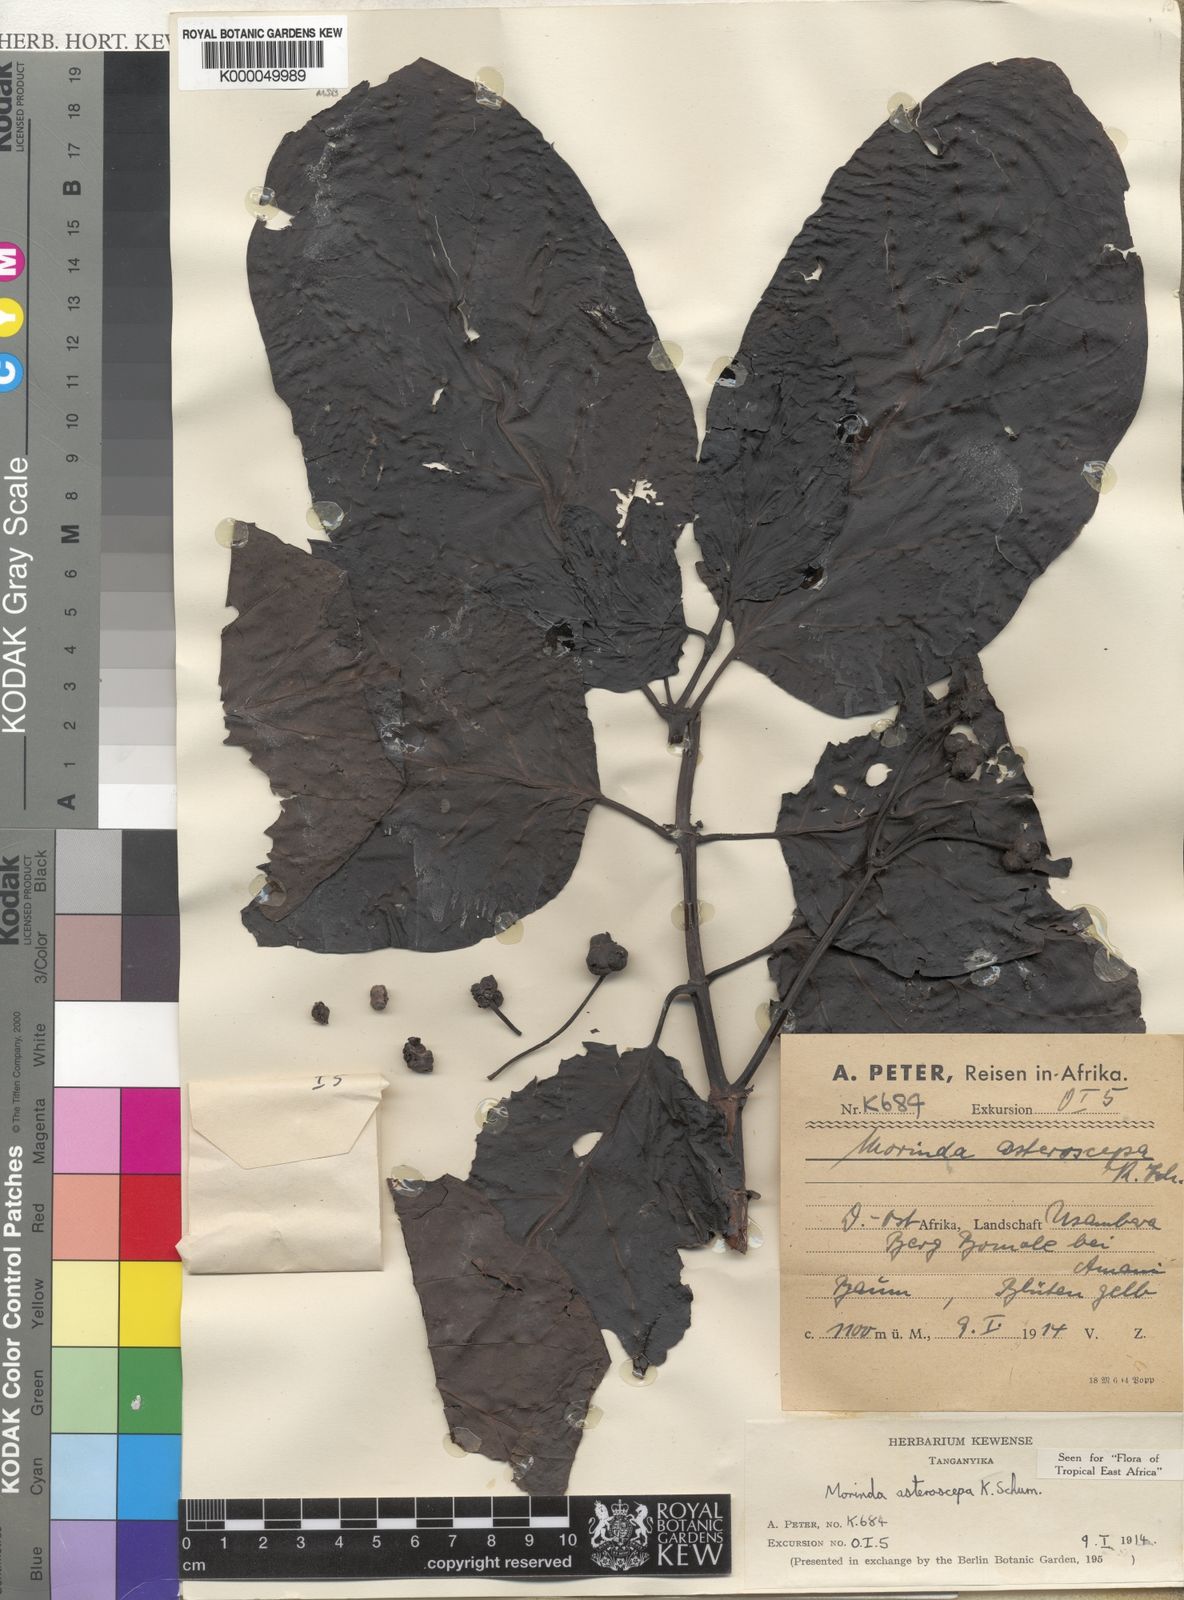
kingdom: Plantae
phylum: Tracheophyta
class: Magnoliopsida
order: Gentianales
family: Rubiaceae
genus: Morinda
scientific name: Morinda asteroscepa
